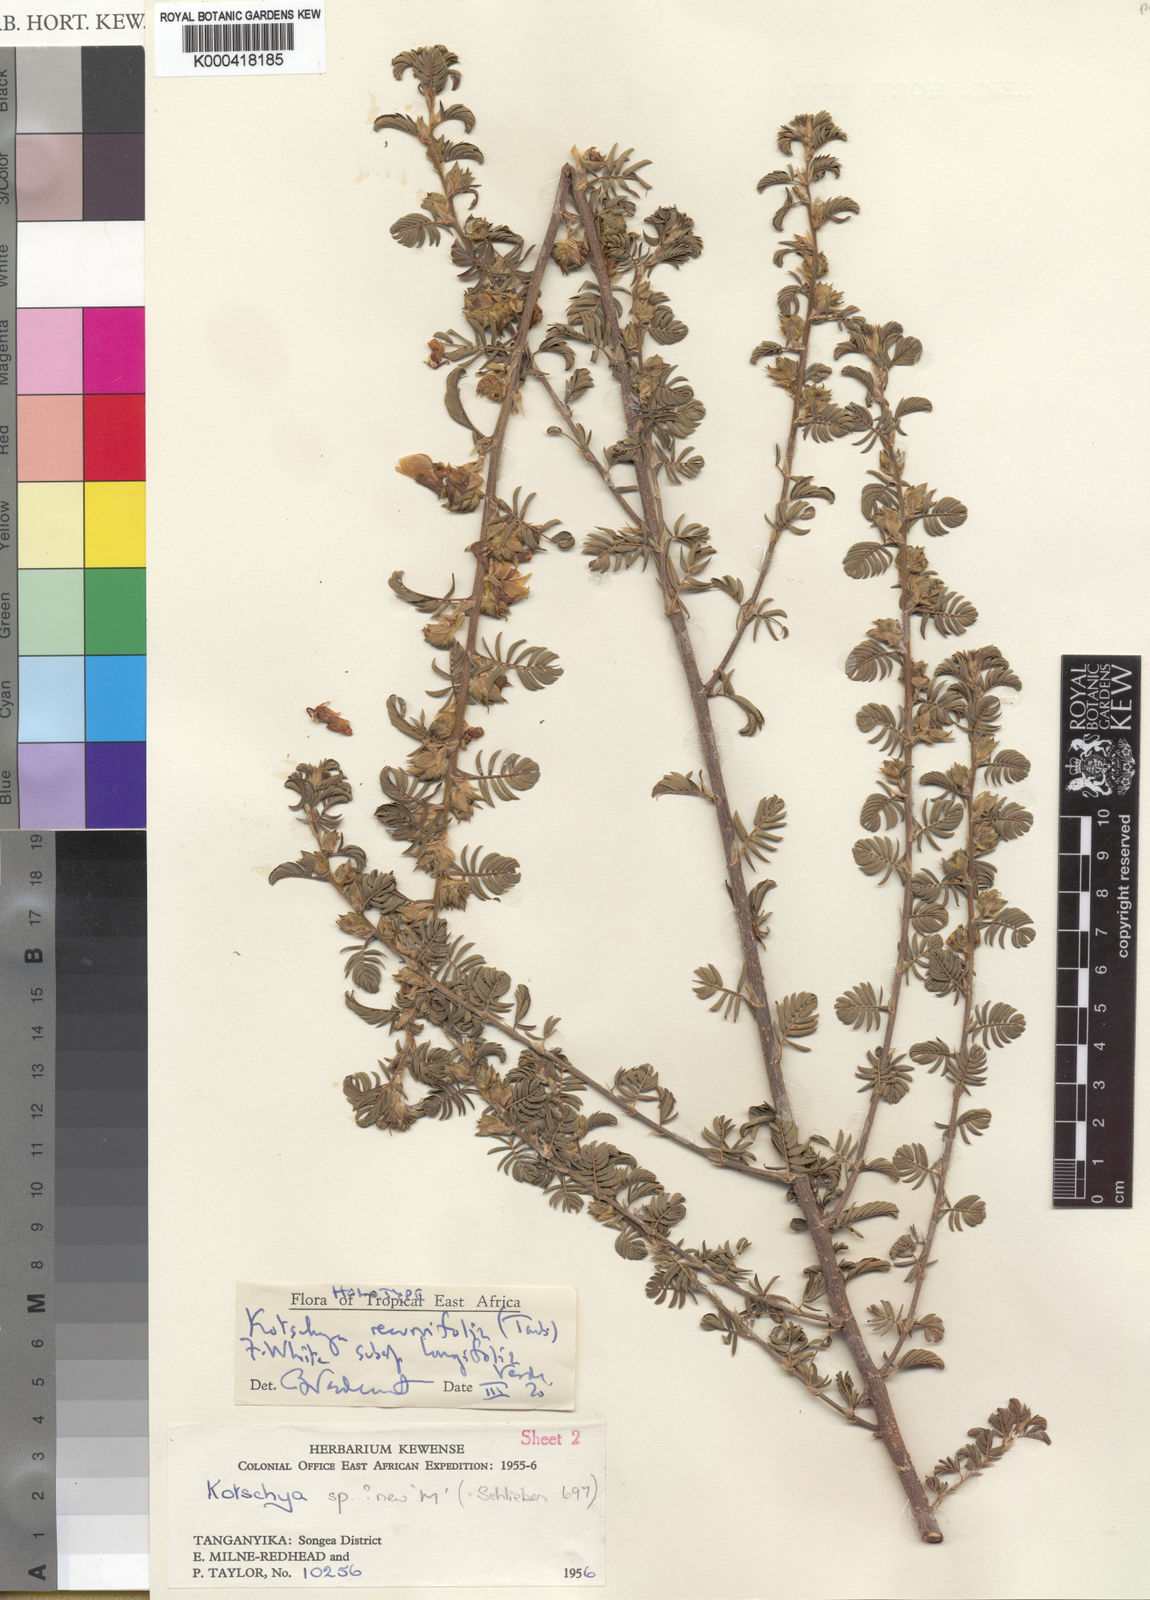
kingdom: Plantae
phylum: Tracheophyta
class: Magnoliopsida
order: Fabales
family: Fabaceae
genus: Kotschya
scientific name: Kotschya recurvifolia
